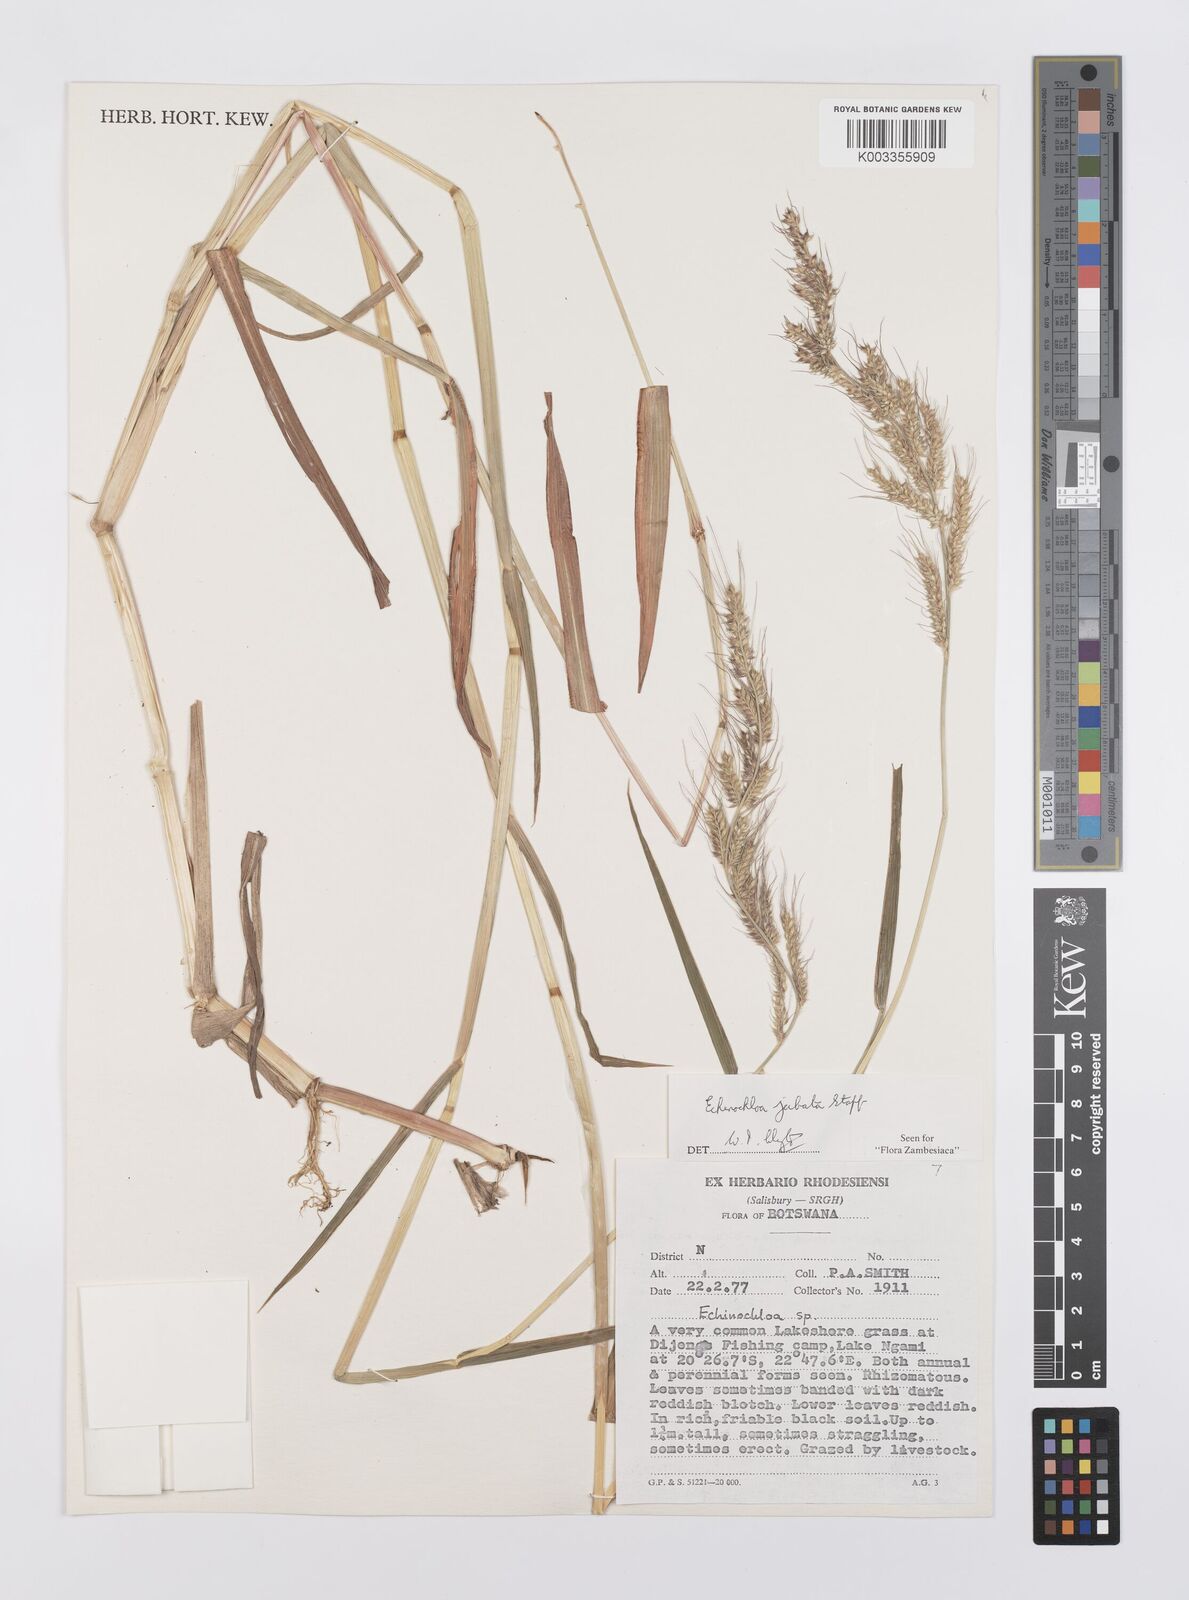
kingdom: Plantae
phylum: Tracheophyta
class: Liliopsida
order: Poales
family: Poaceae
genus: Echinochloa
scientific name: Echinochloa jubata
